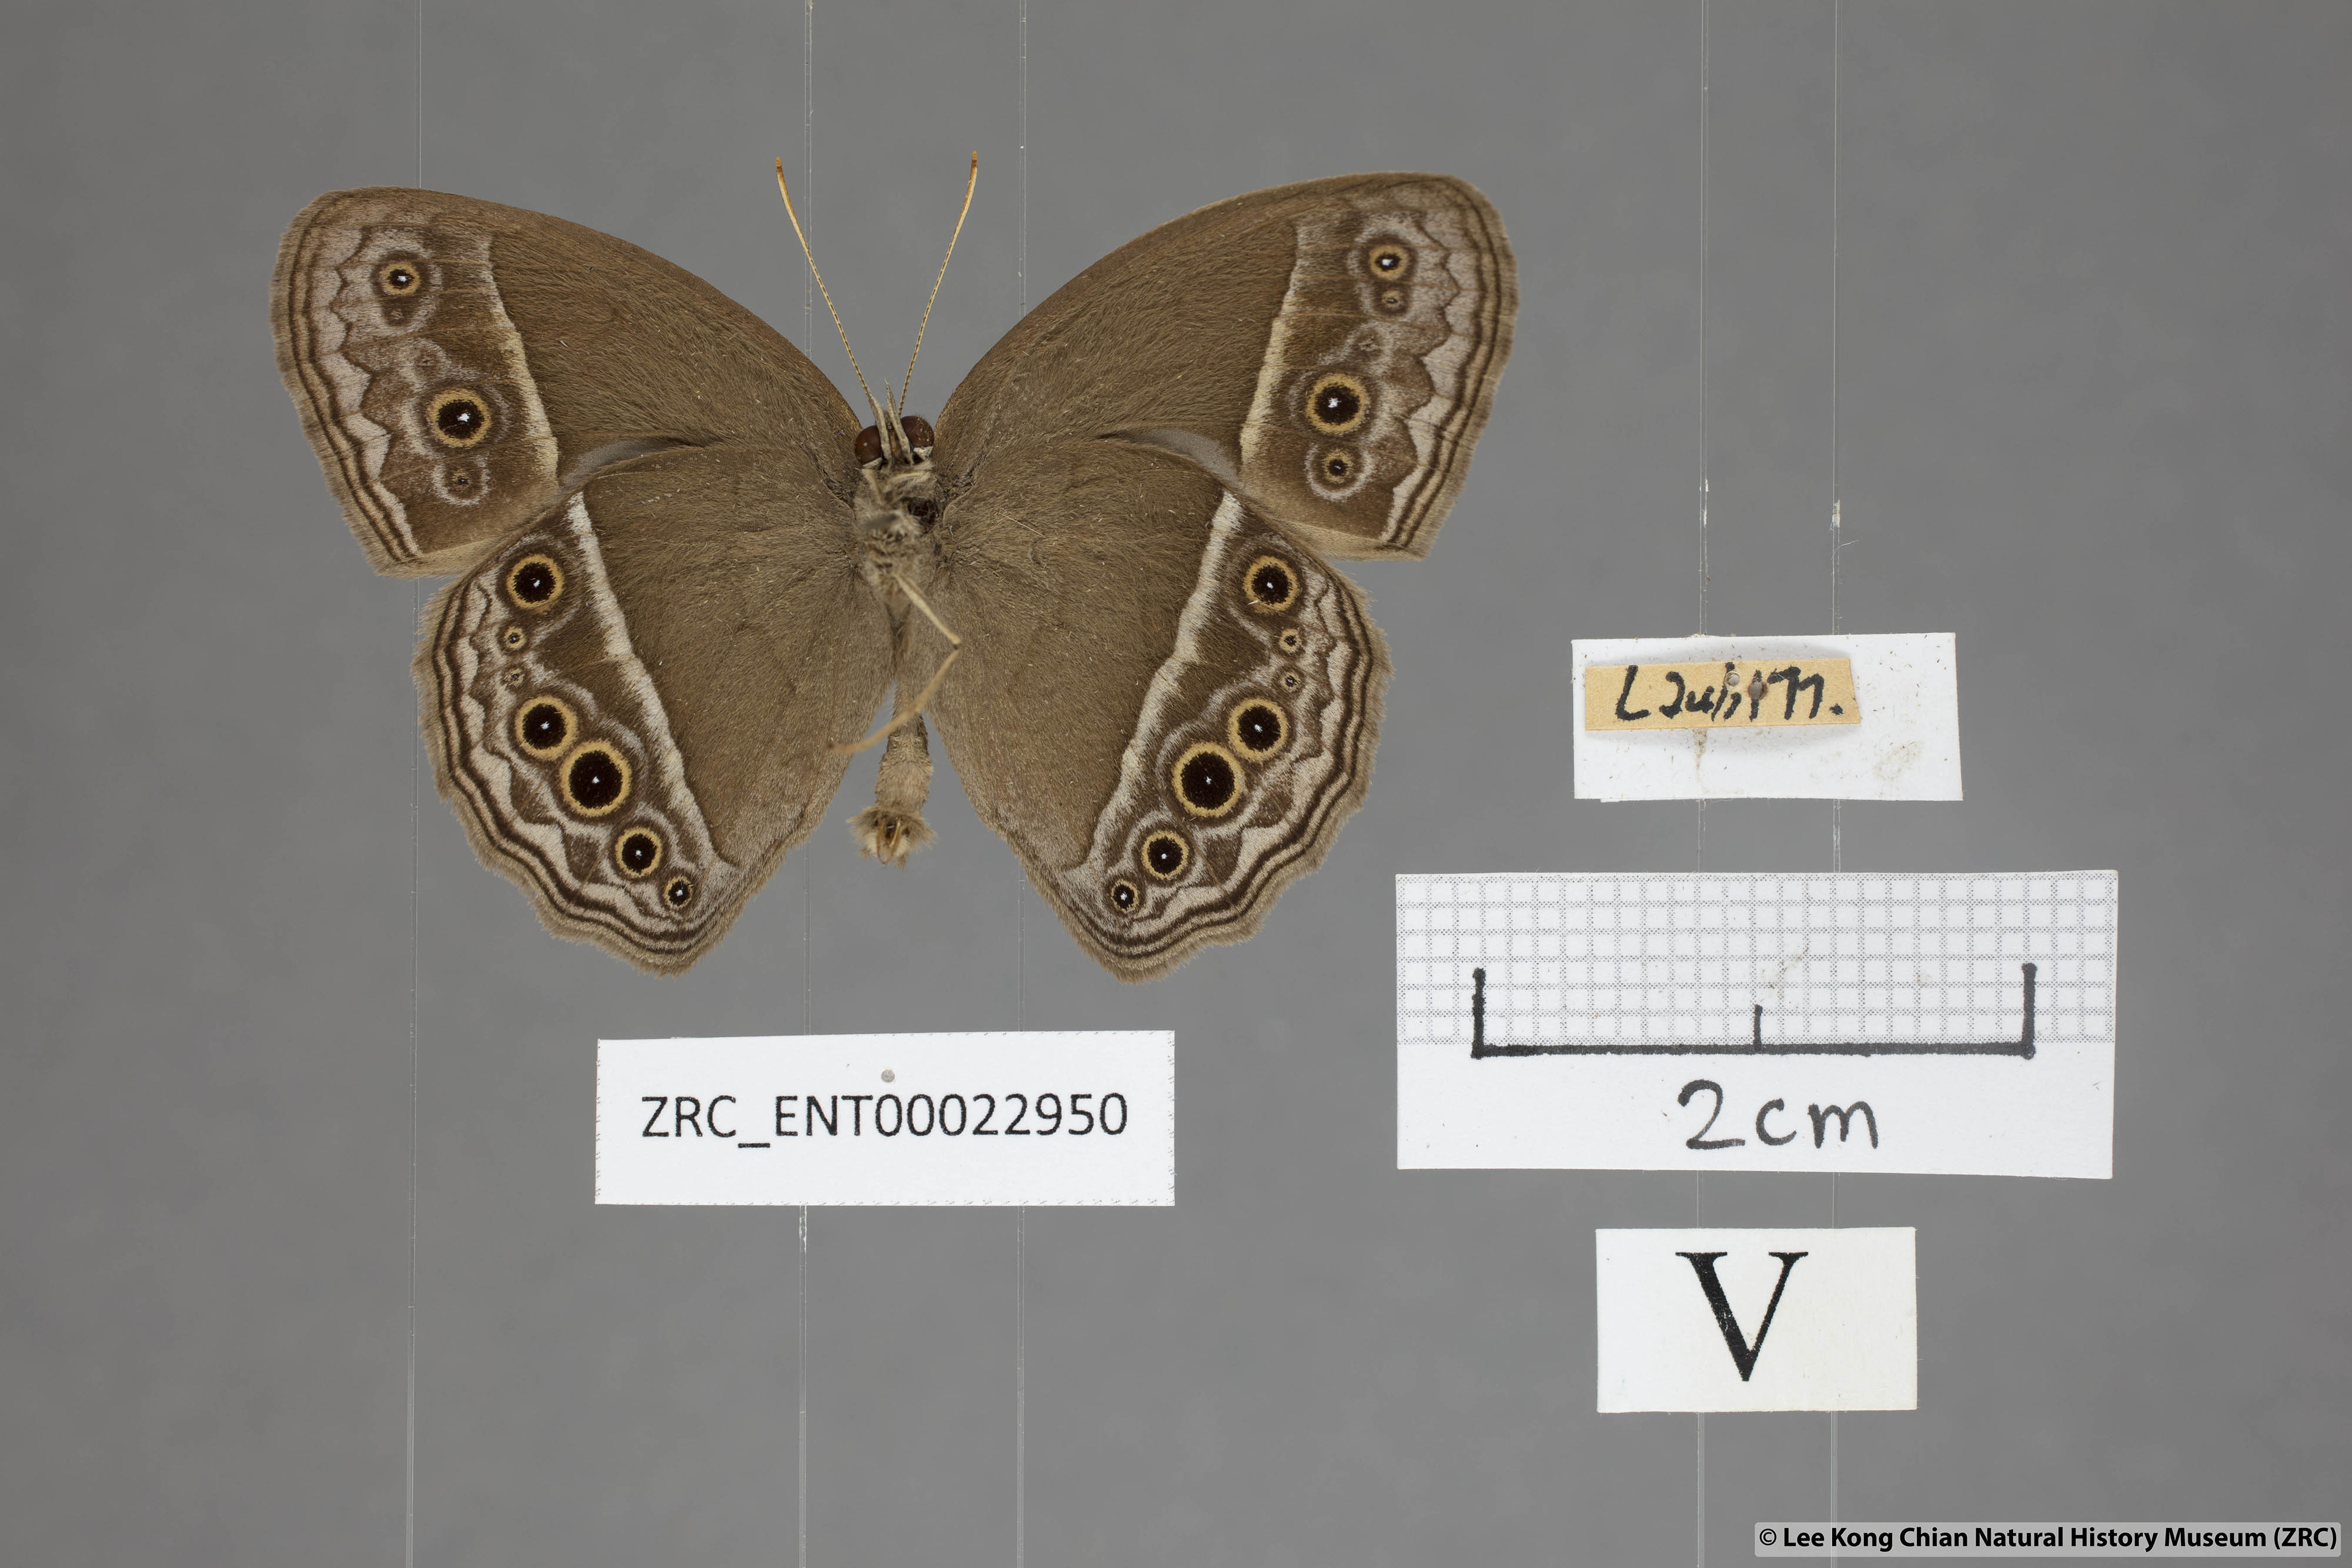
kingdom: Animalia
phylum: Arthropoda
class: Insecta
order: Lepidoptera
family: Nymphalidae
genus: Mycalesis
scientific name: Mycalesis mineus
